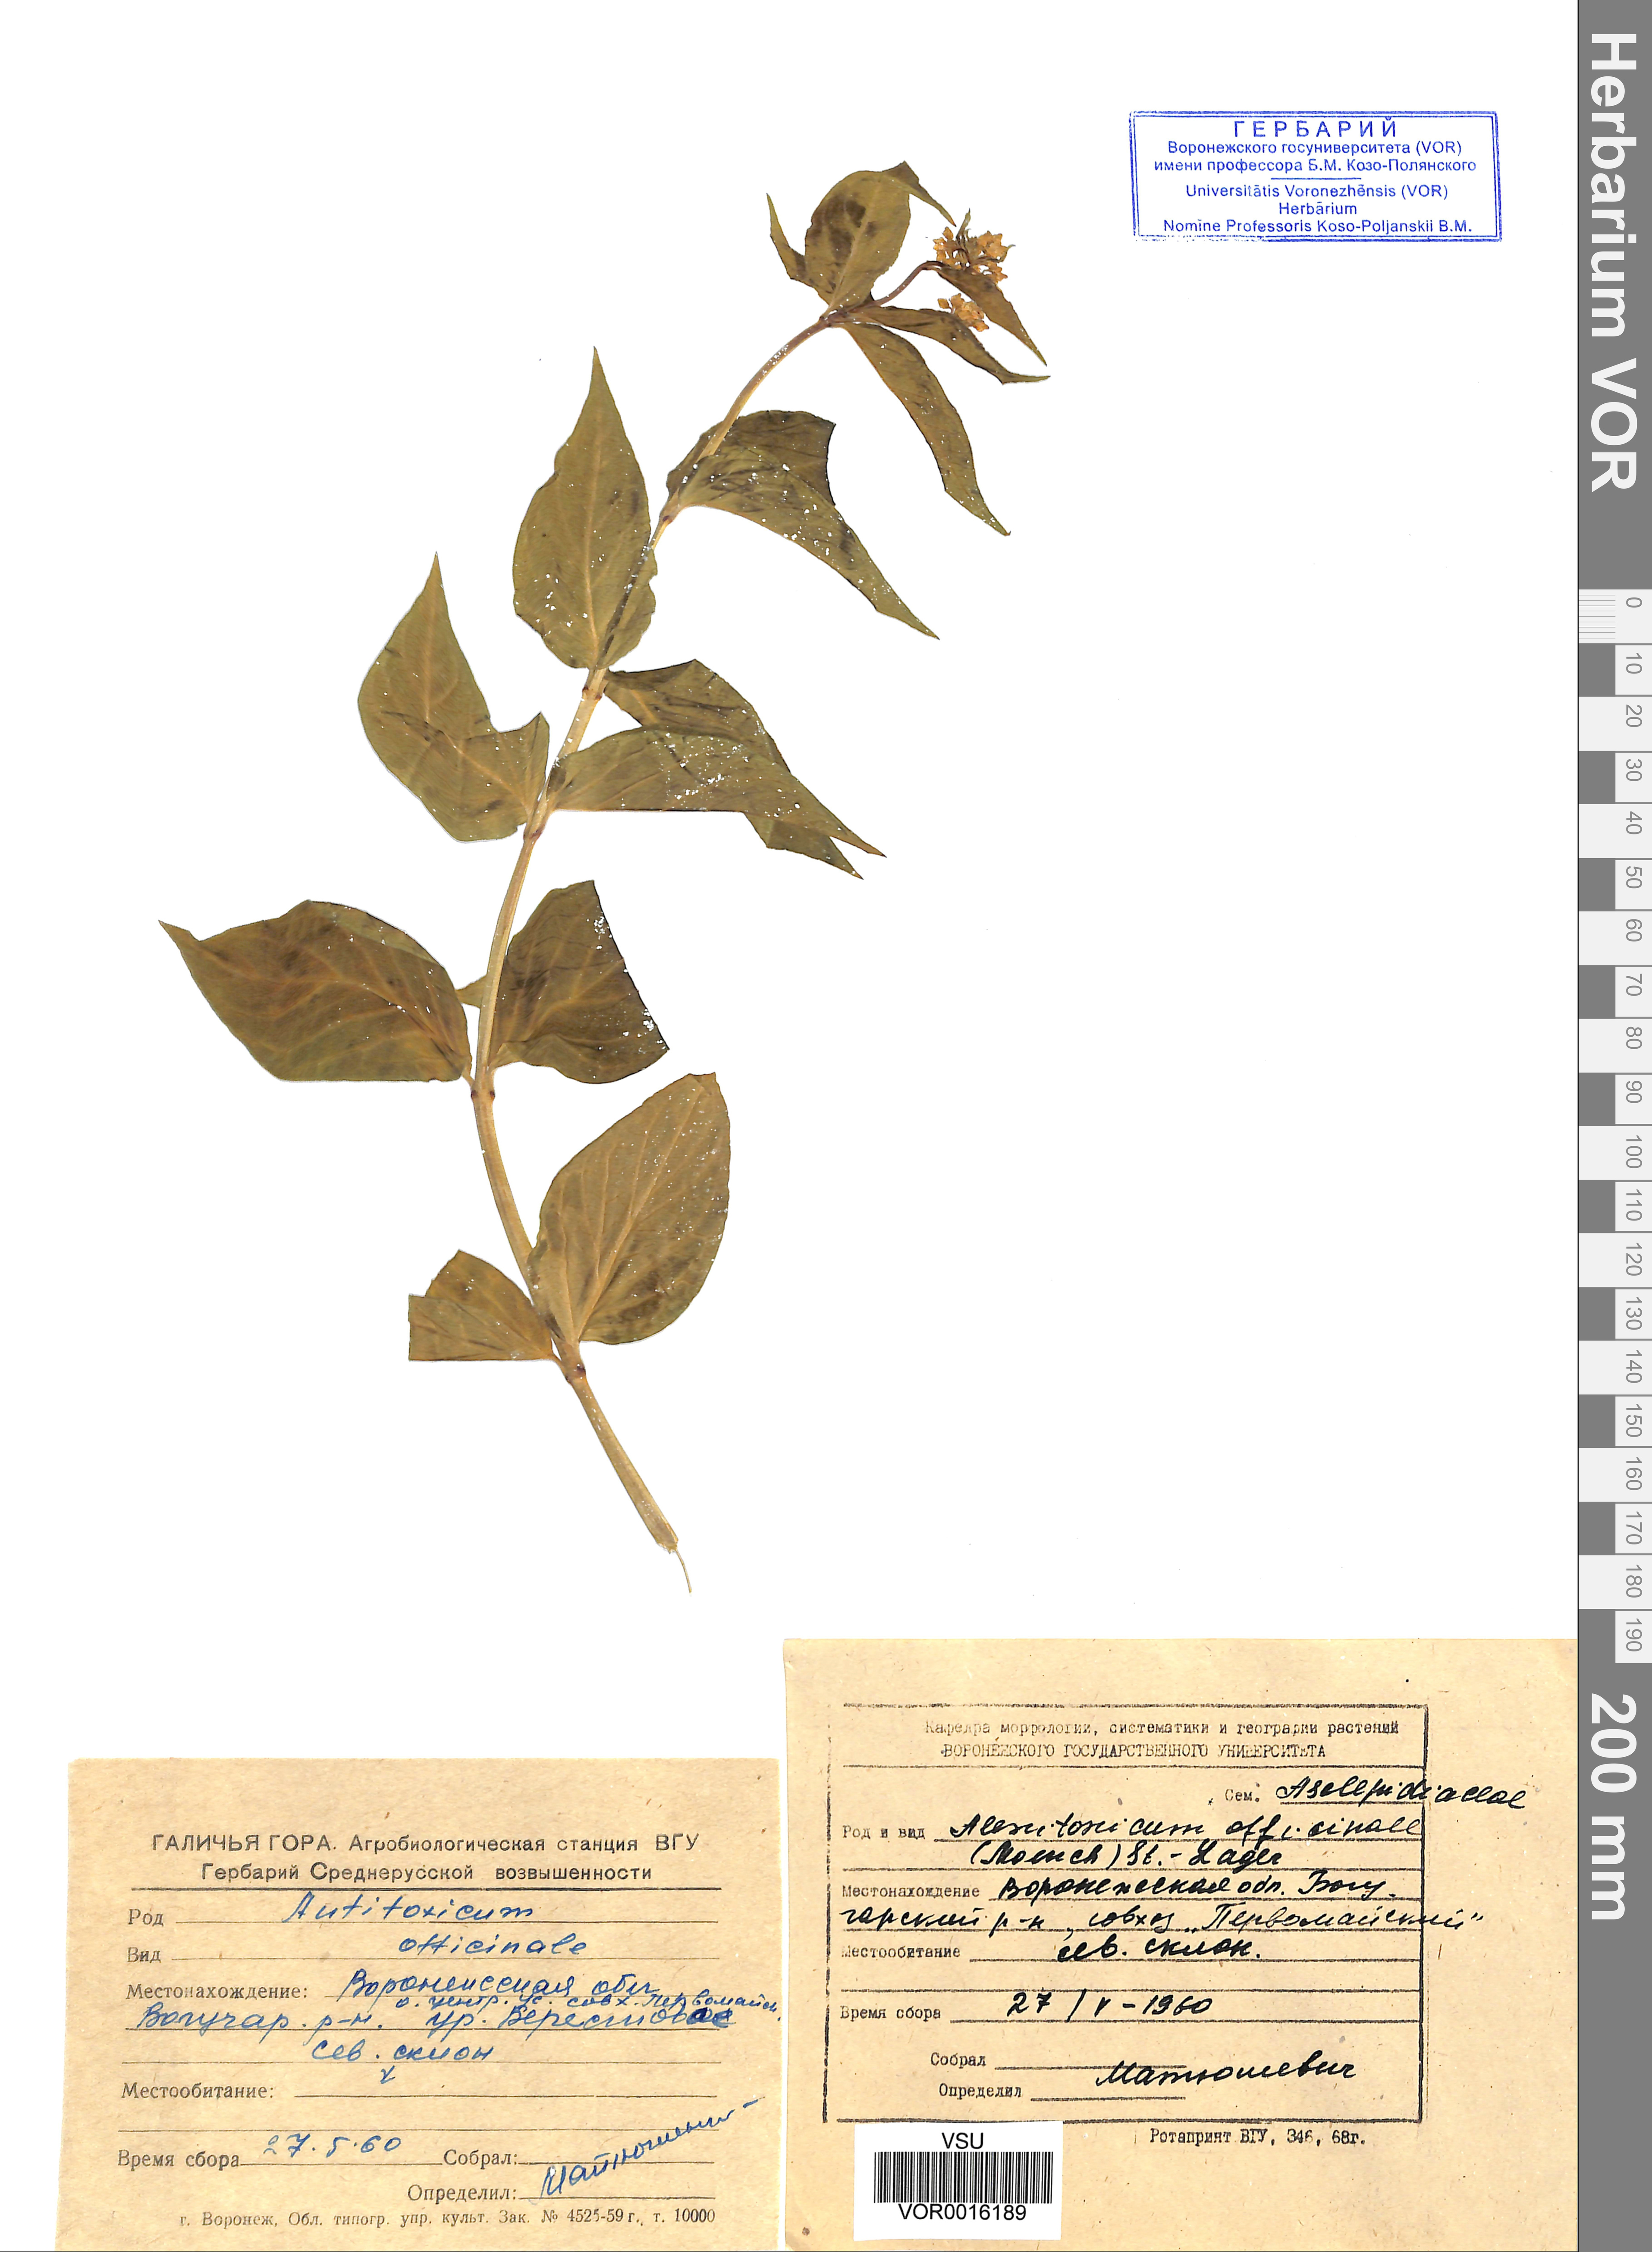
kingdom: Plantae
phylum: Tracheophyta
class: Magnoliopsida
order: Gentianales
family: Apocynaceae
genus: Vincetoxicum
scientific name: Vincetoxicum hirundinaria
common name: White swallowwort
